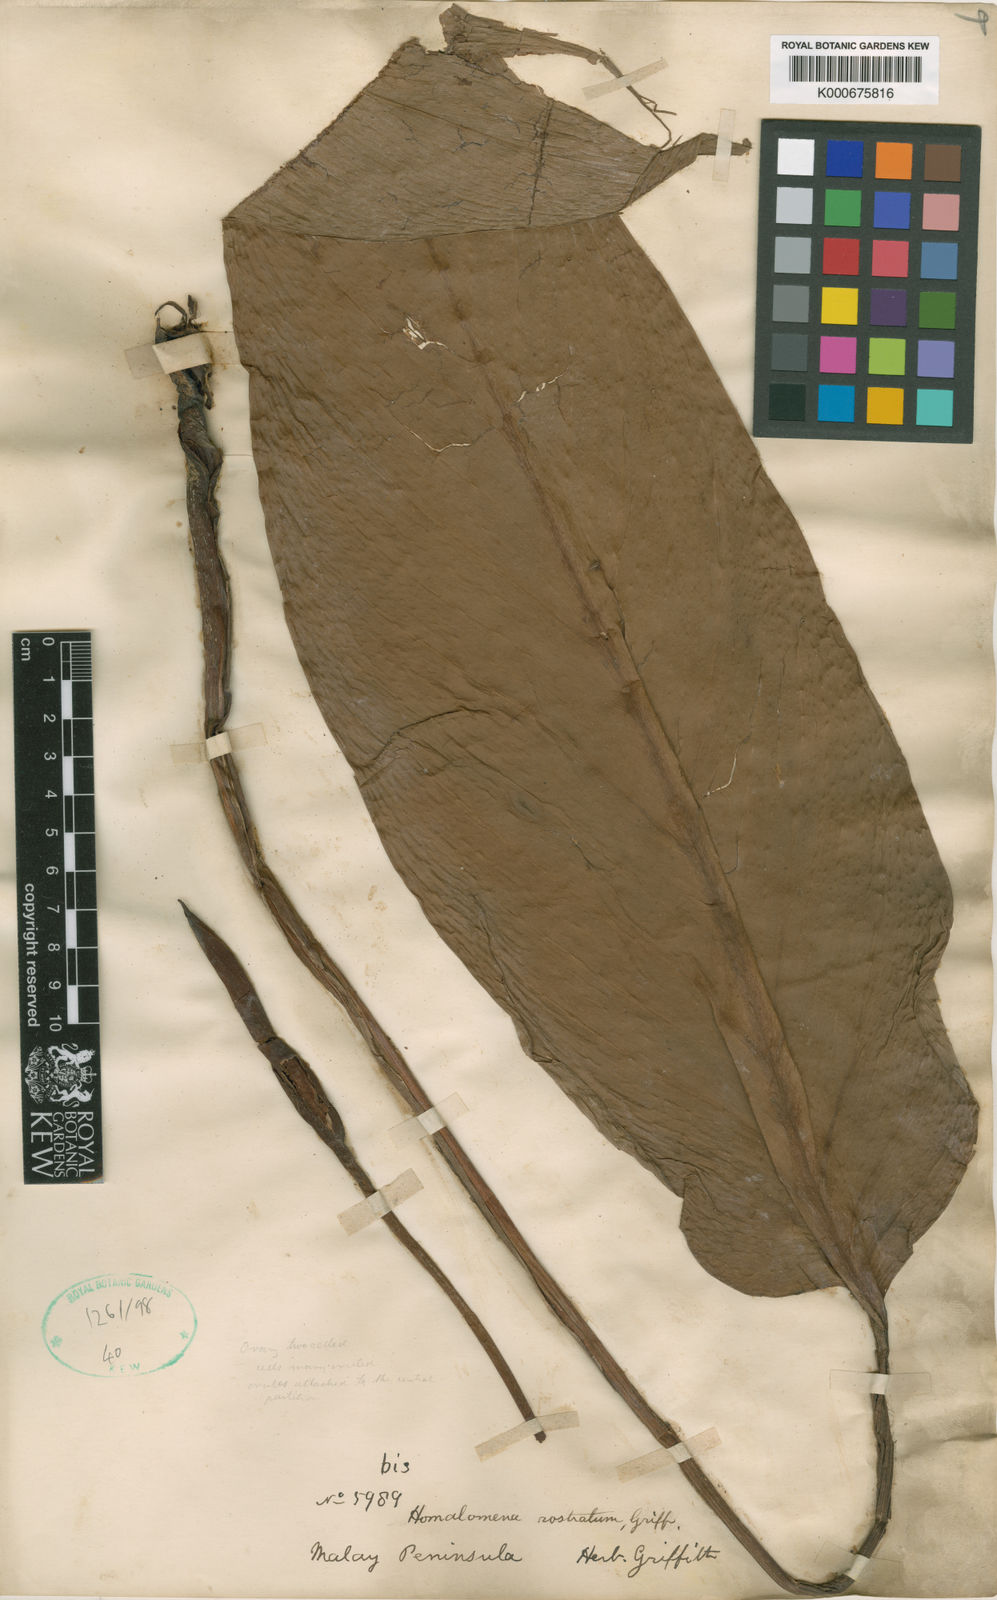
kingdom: Plantae
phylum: Tracheophyta
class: Liliopsida
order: Alismatales
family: Araceae
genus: Homalomena
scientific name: Homalomena rostrata
